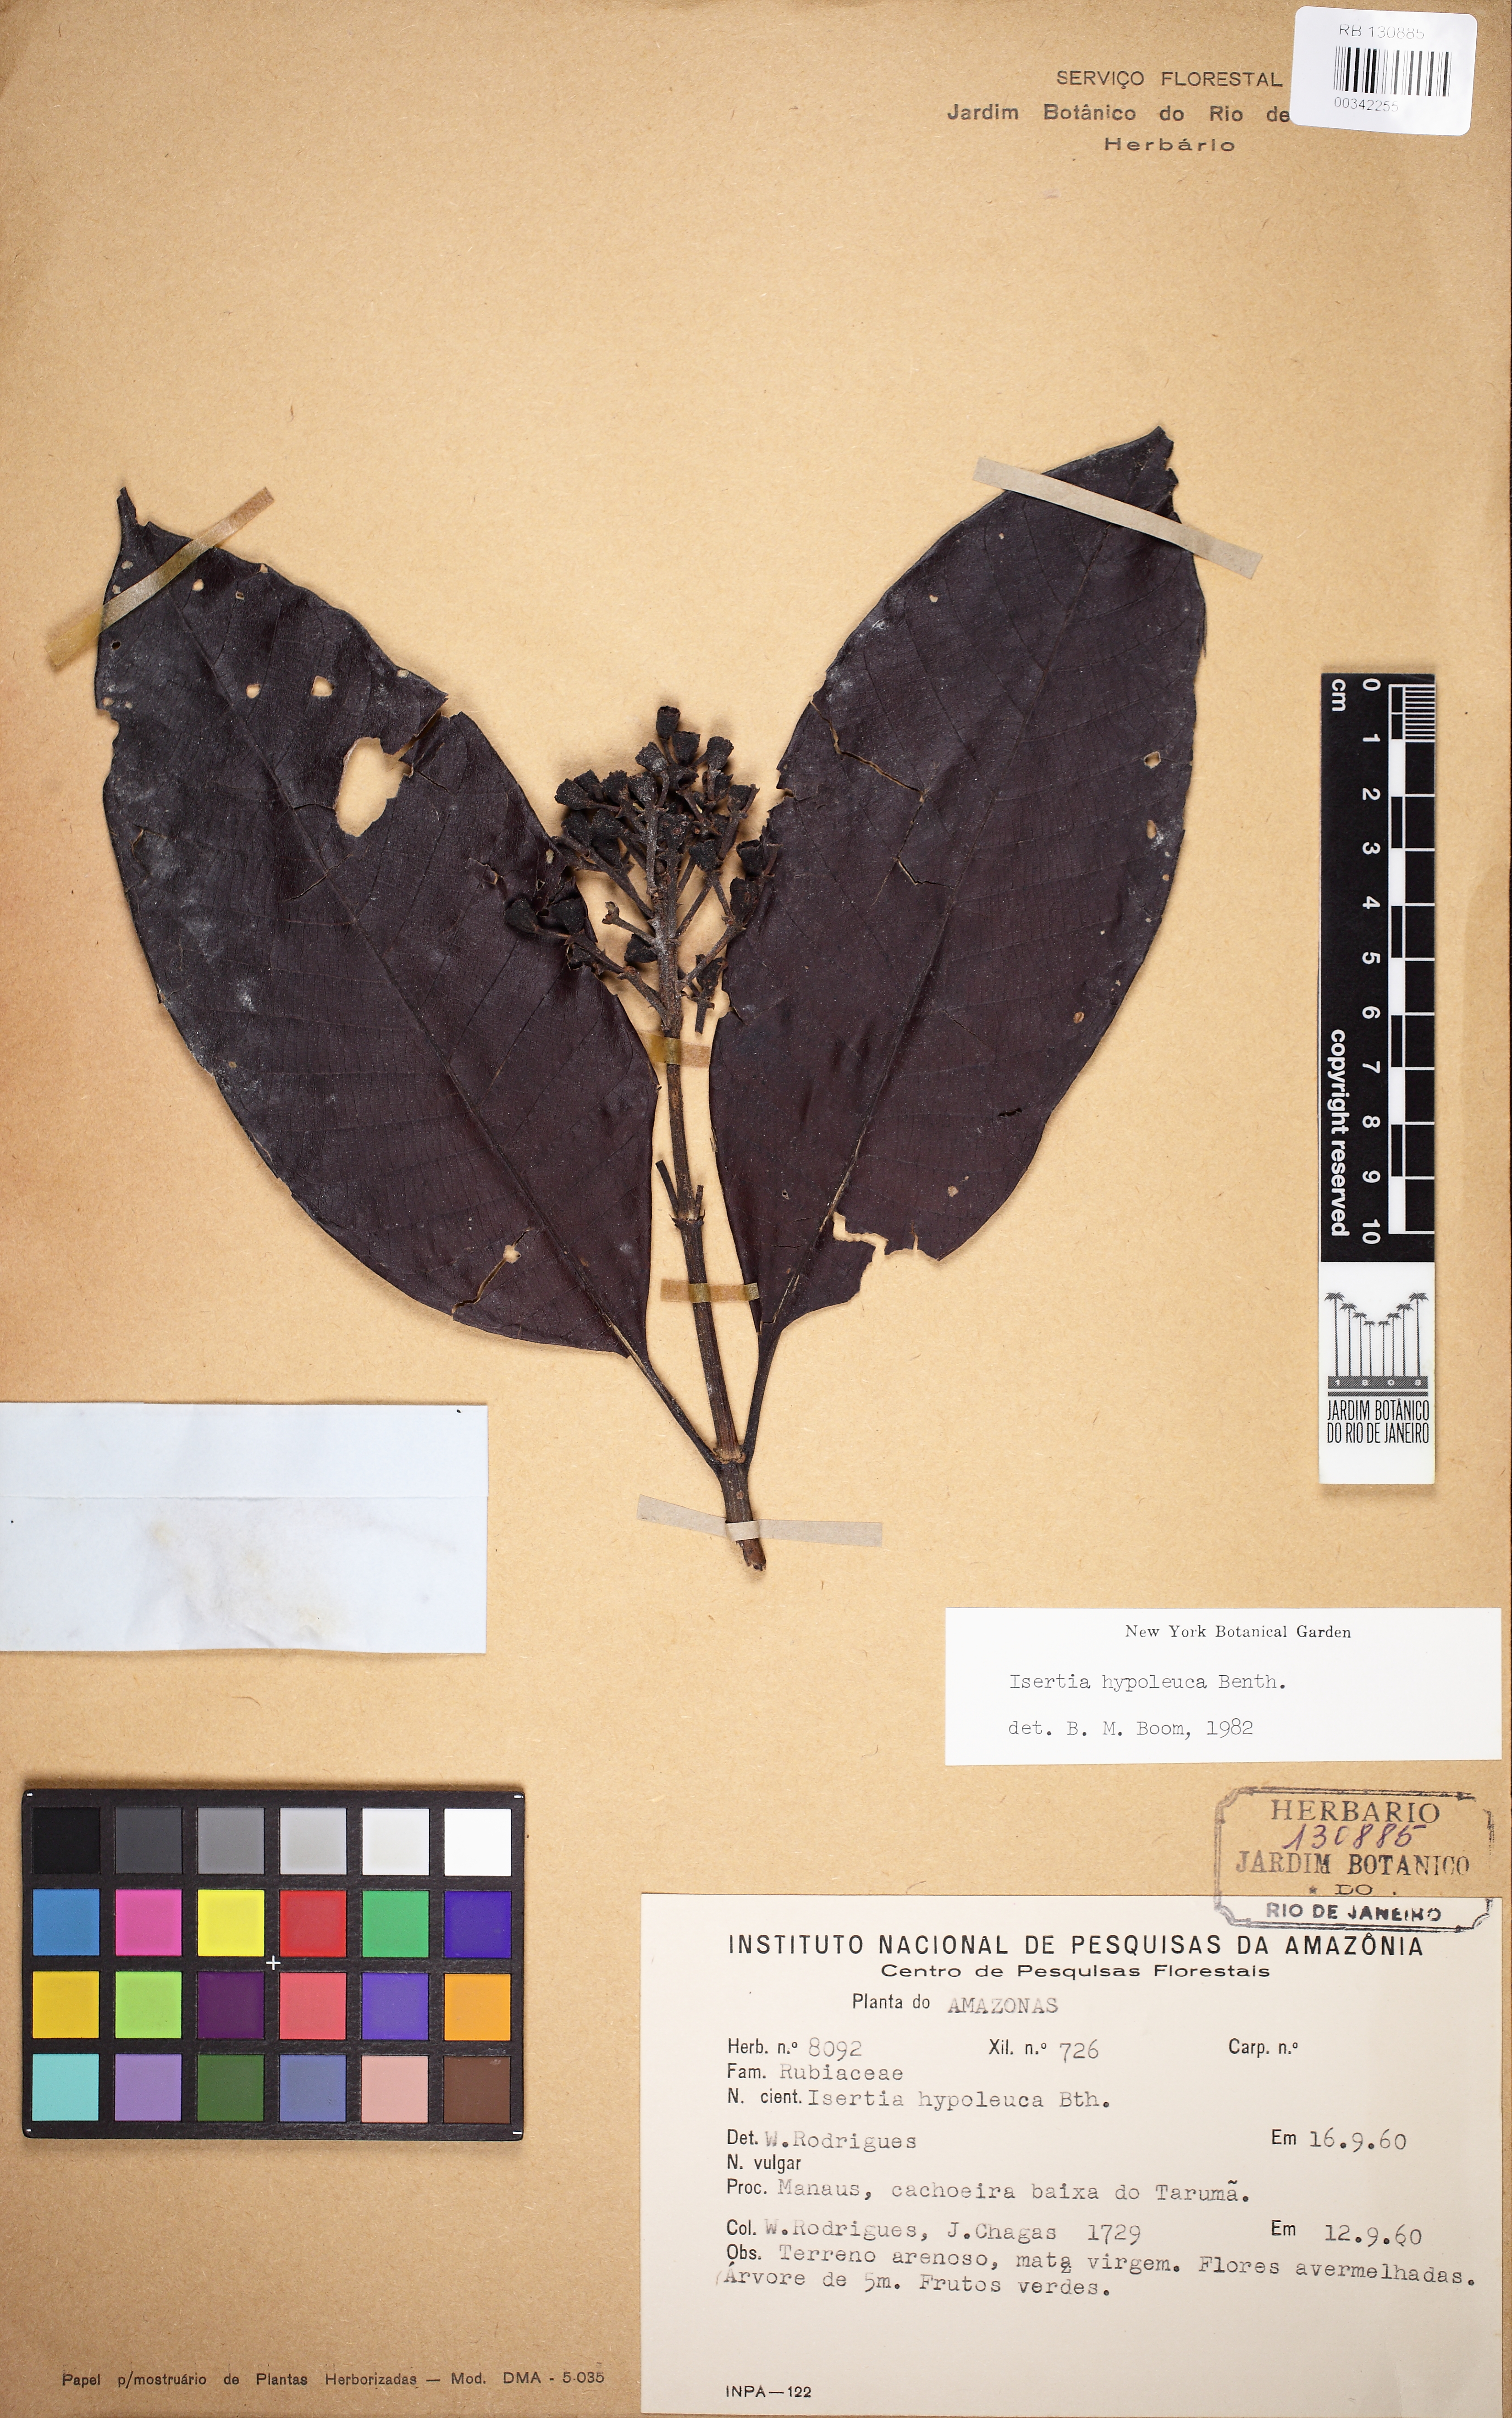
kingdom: Plantae
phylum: Tracheophyta
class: Magnoliopsida
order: Gentianales
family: Rubiaceae
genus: Isertia
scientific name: Isertia hypoleuca
